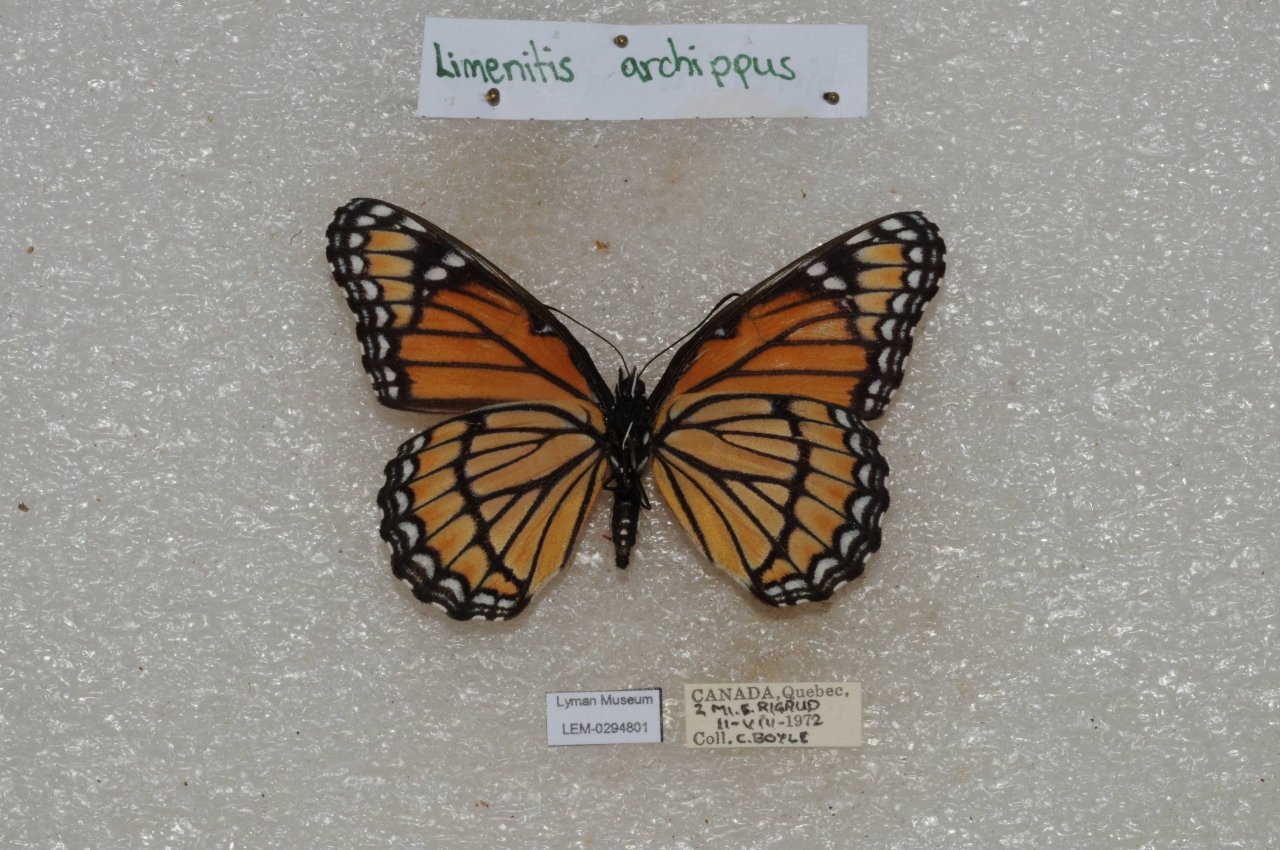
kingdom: Animalia
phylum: Arthropoda
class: Insecta
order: Lepidoptera
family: Nymphalidae
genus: Limenitis
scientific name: Limenitis archippus
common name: Viceroy
